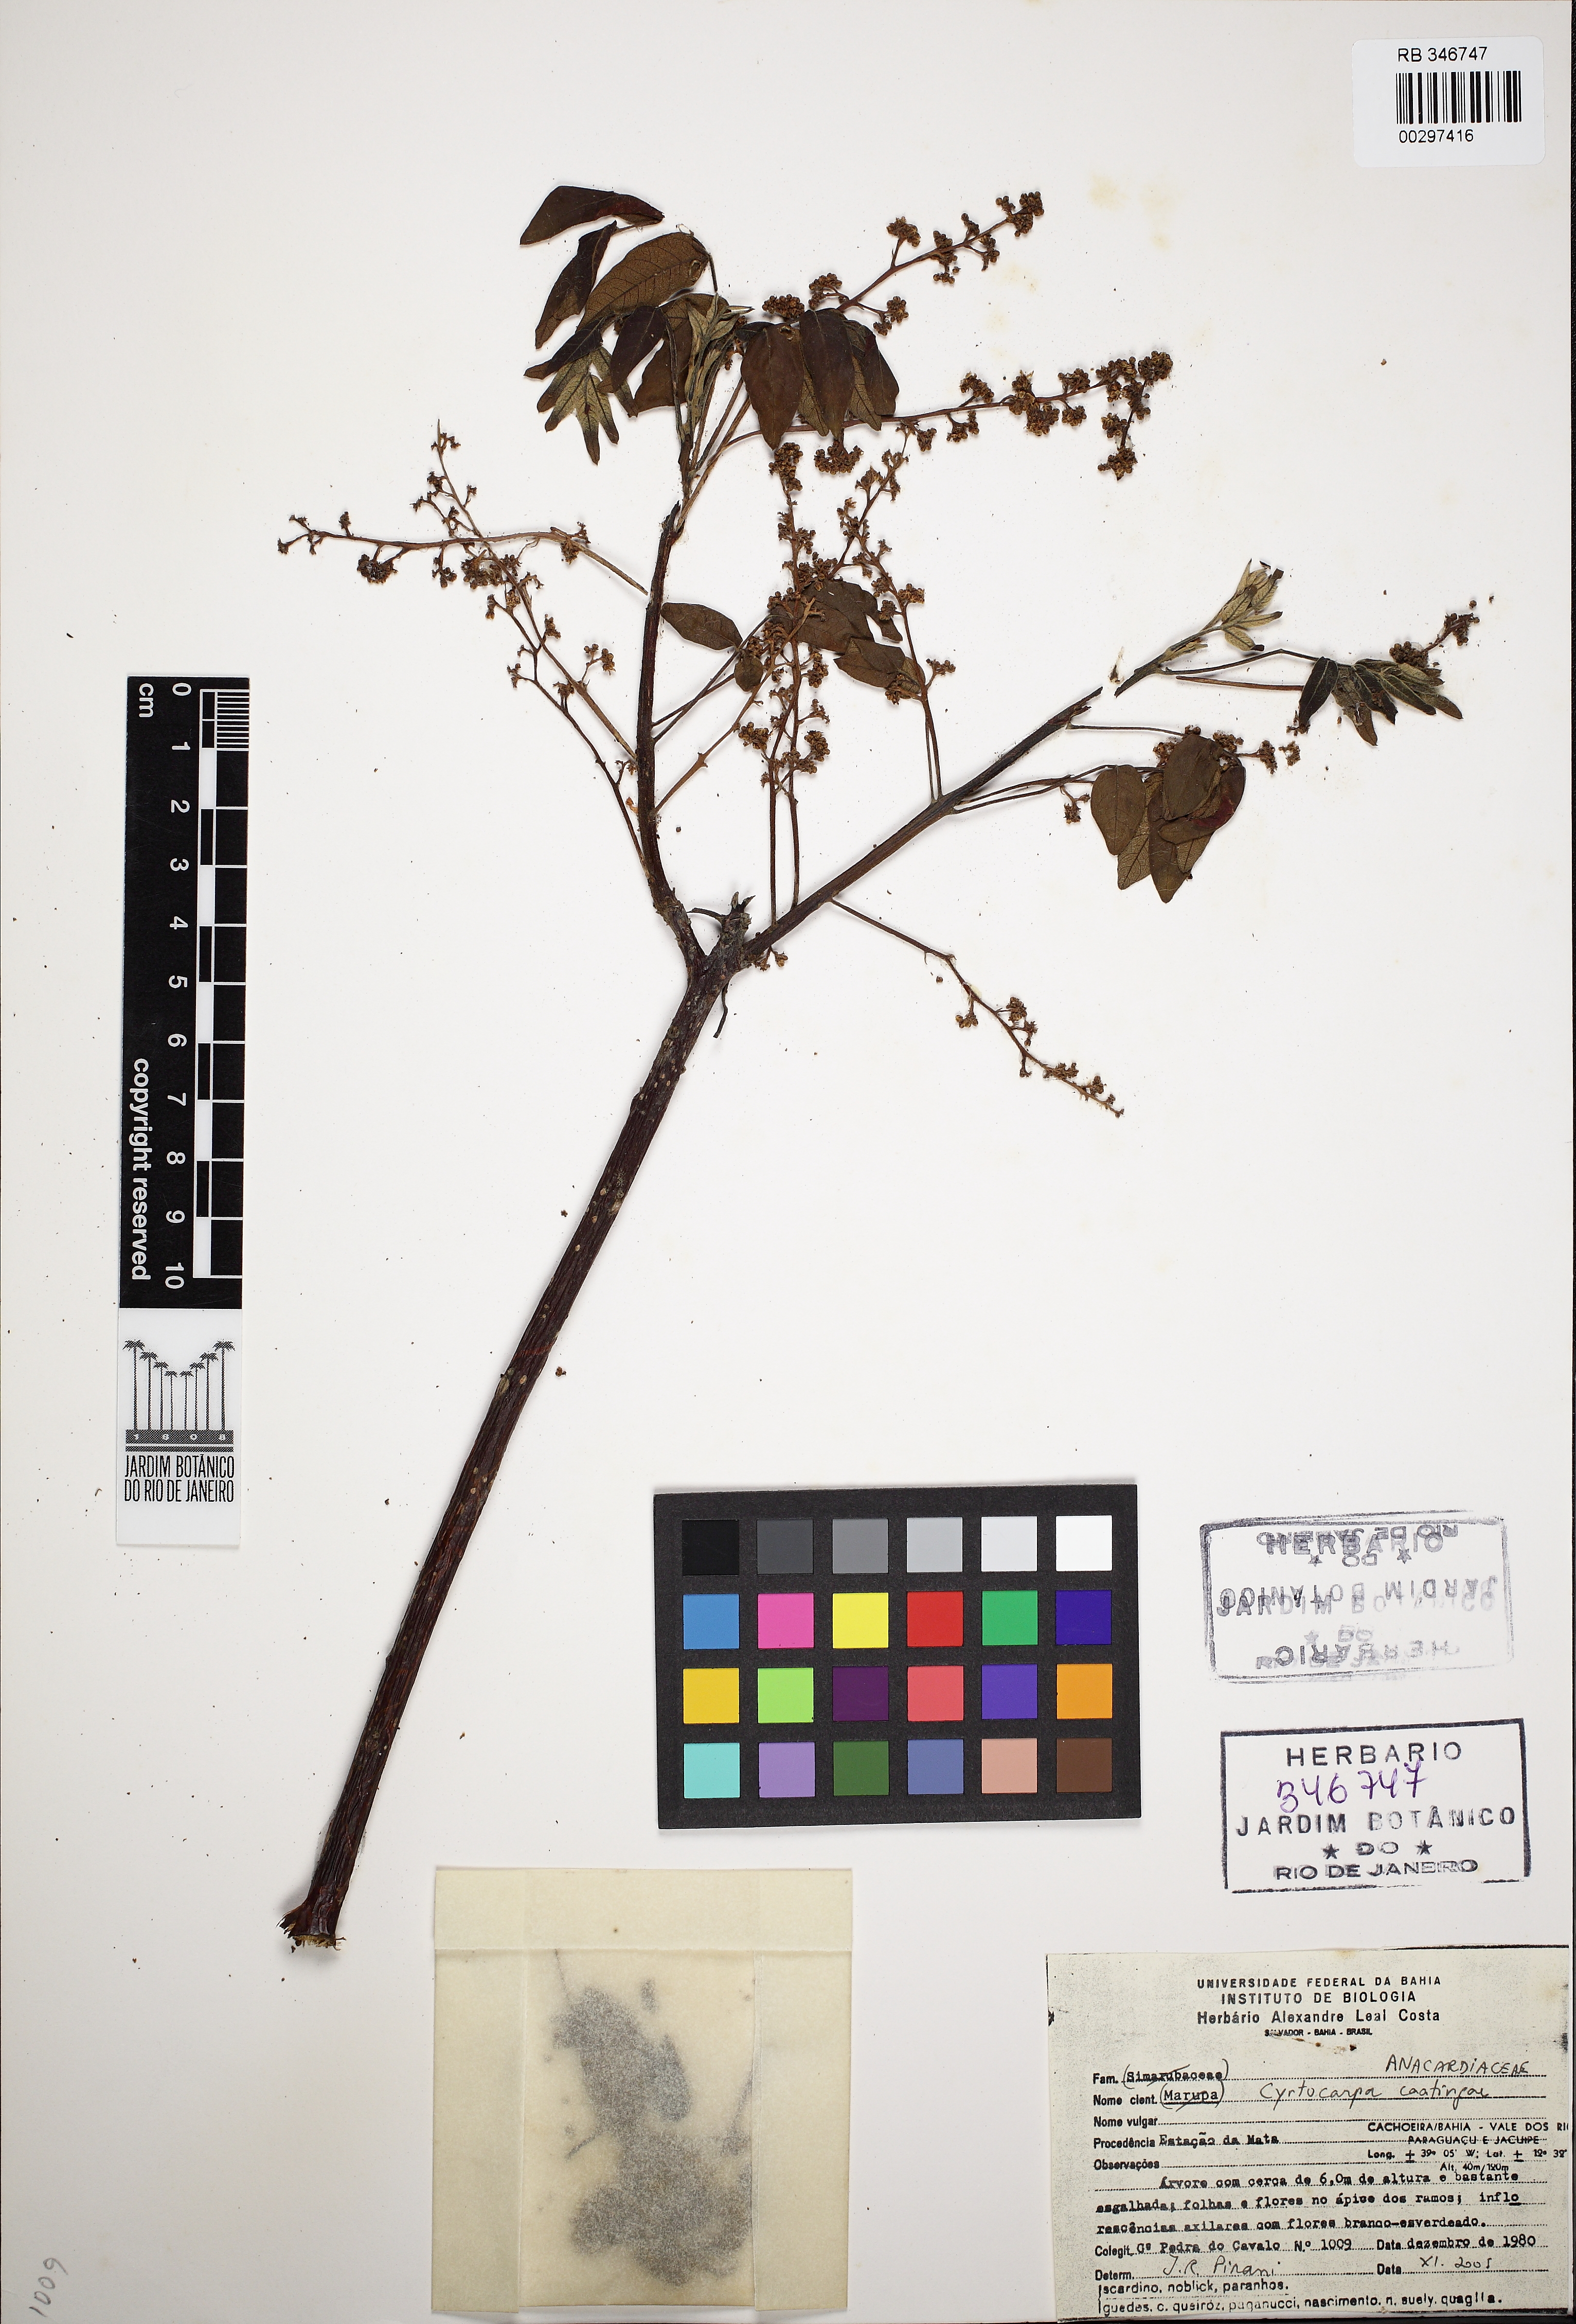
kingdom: Plantae
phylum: Tracheophyta
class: Magnoliopsida
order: Sapindales
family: Anacardiaceae
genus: Cyrtocarpa
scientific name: Cyrtocarpa caatingae
